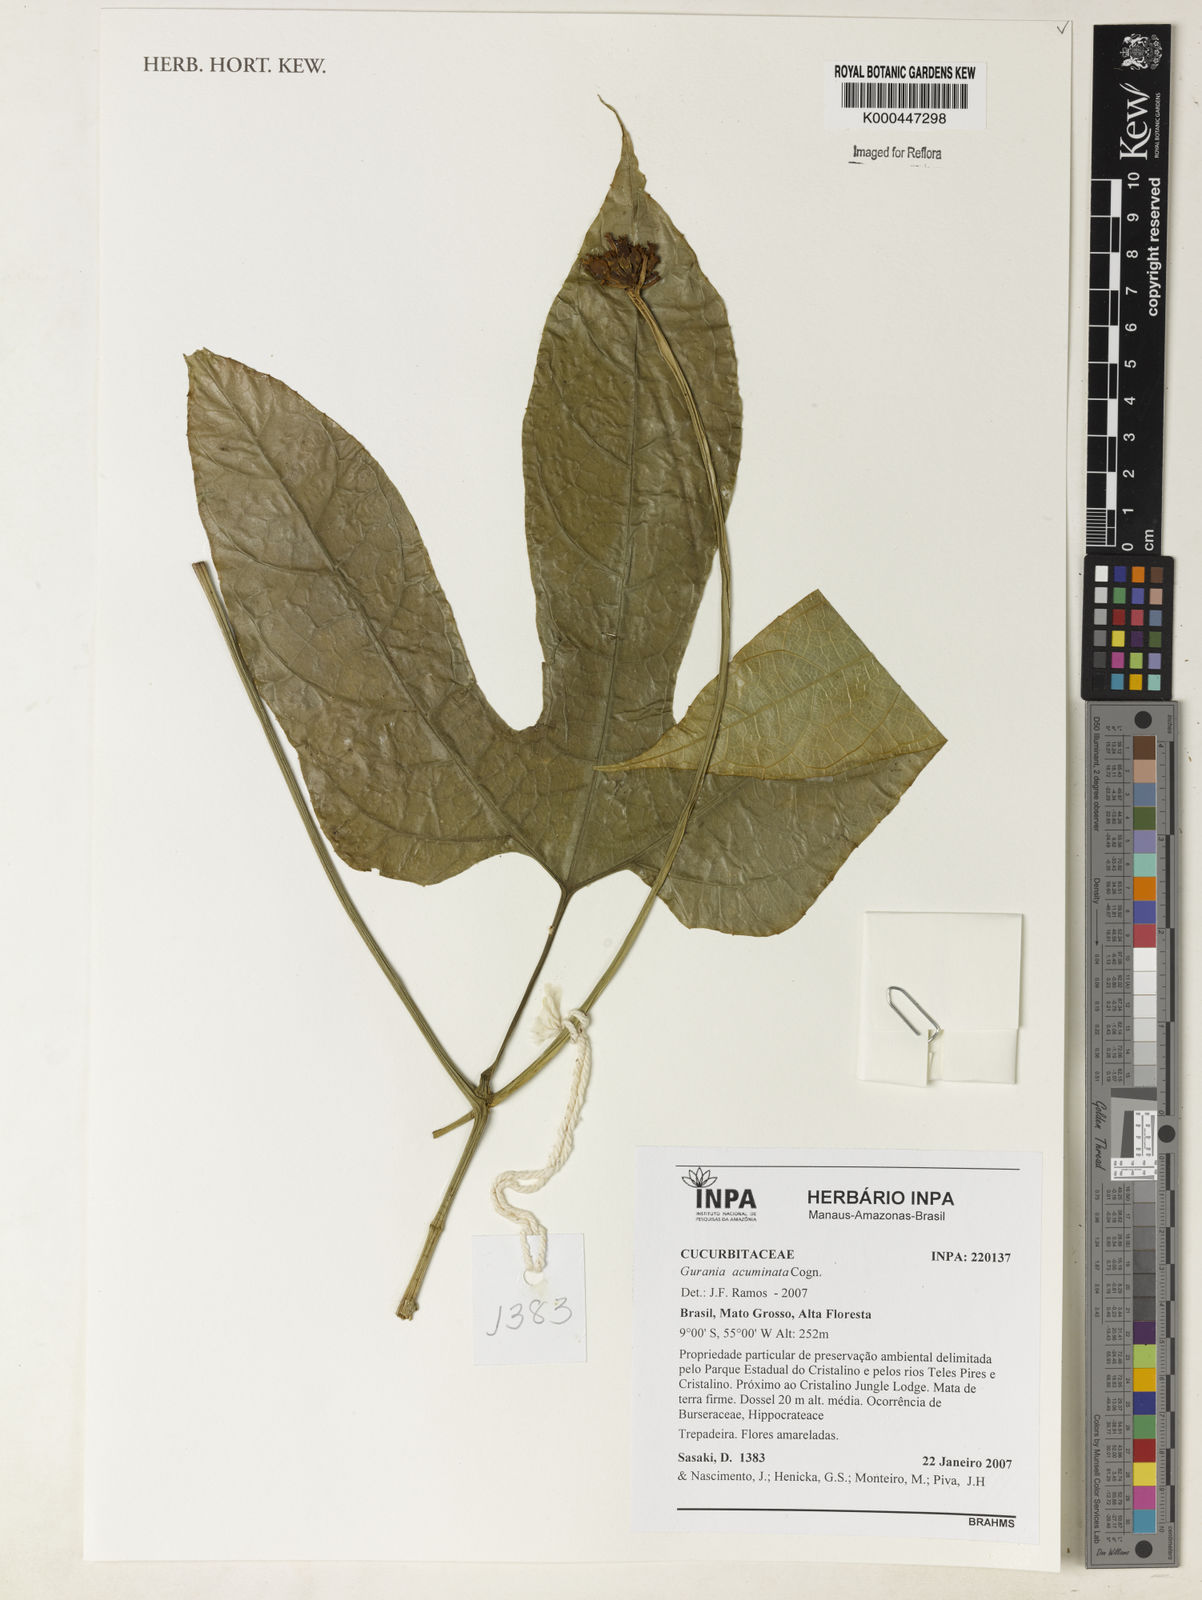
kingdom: Plantae
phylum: Tracheophyta
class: Magnoliopsida
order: Cucurbitales
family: Cucurbitaceae
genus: Gurania
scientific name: Gurania acuminata
